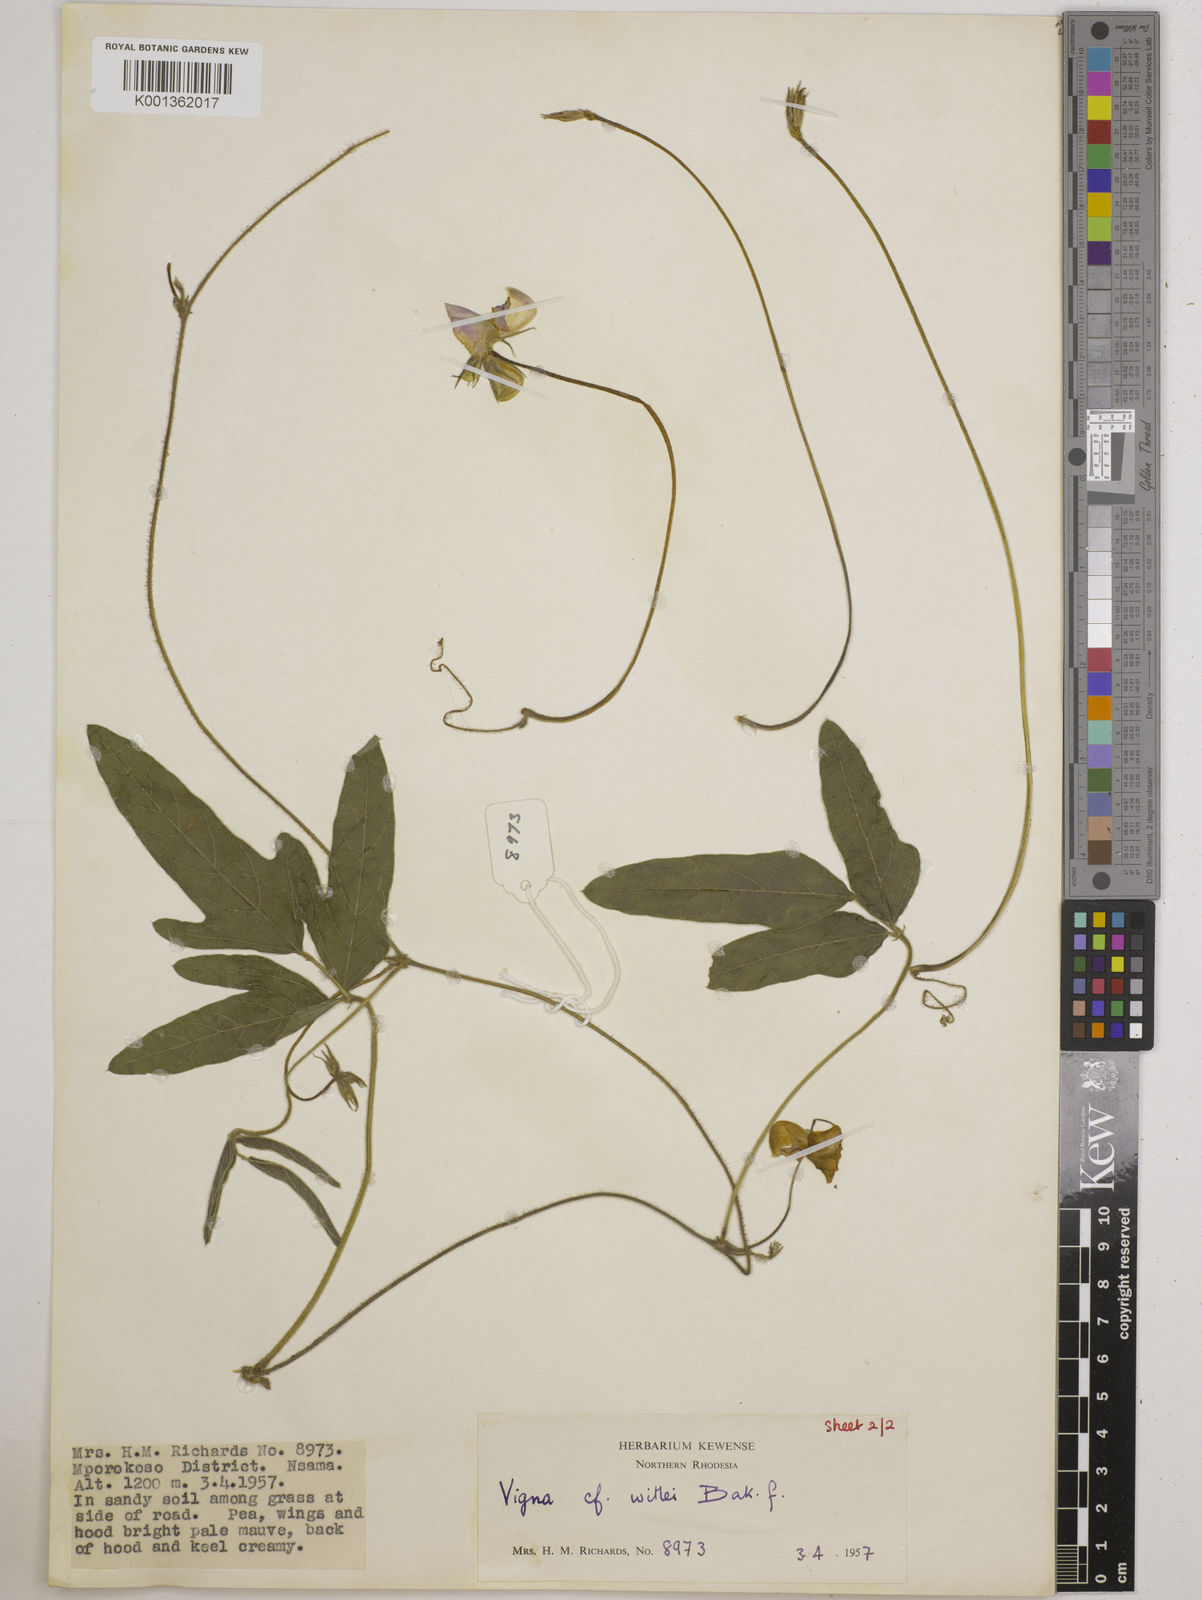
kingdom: Plantae
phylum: Tracheophyta
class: Magnoliopsida
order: Fabales
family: Fabaceae
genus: Vigna
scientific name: Vigna radicans
